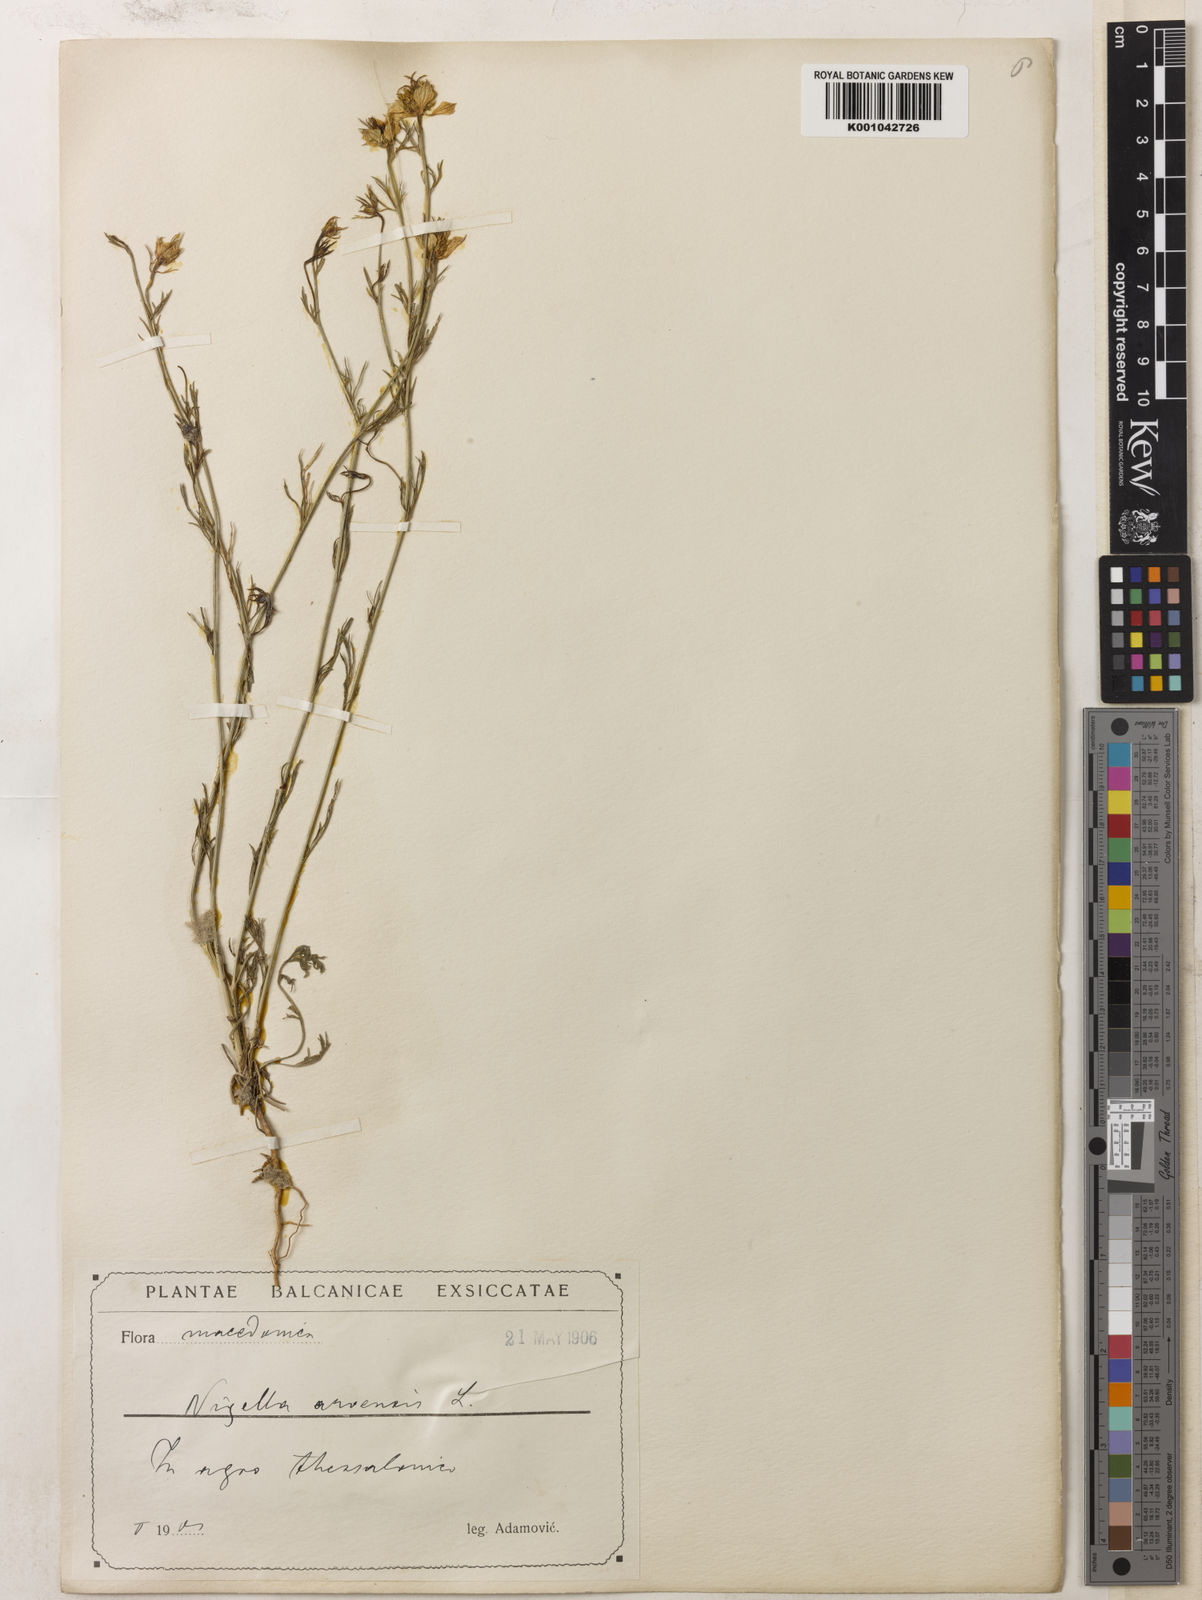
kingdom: Plantae
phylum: Tracheophyta
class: Magnoliopsida
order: Ranunculales
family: Ranunculaceae
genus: Nigella
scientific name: Nigella arvensis
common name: Wild fennel-flower
